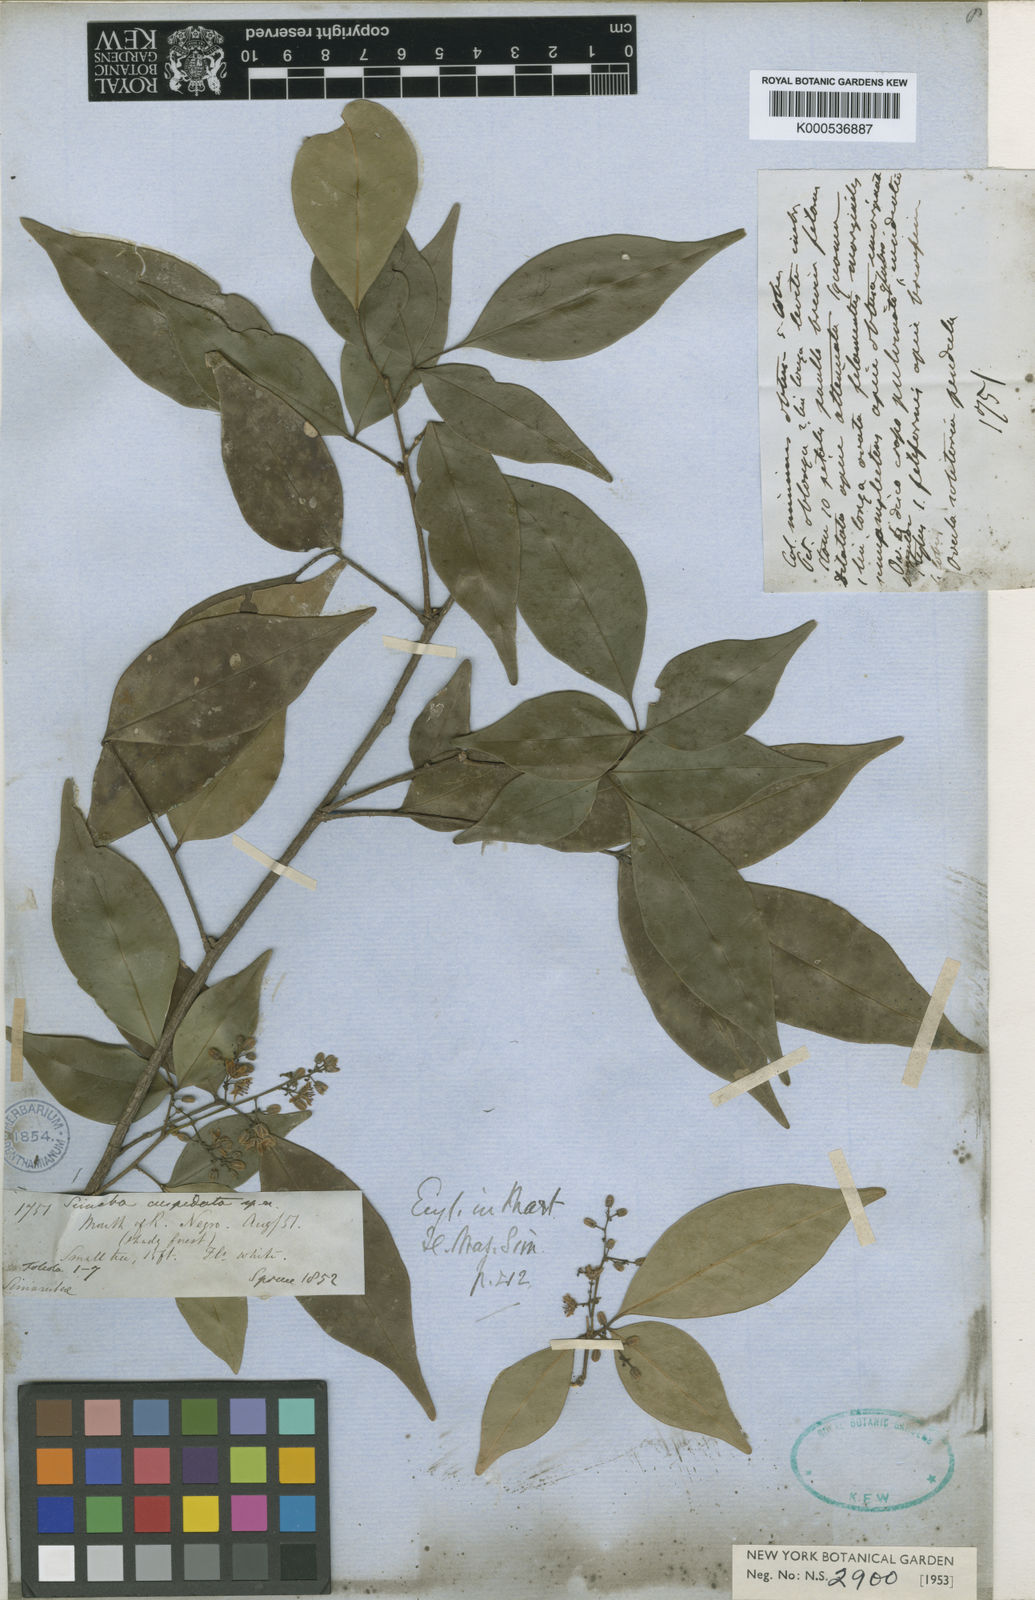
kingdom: Plantae
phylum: Tracheophyta
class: Magnoliopsida
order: Sapindales
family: Simaroubaceae
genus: Simaba
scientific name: Simaba guianensis
